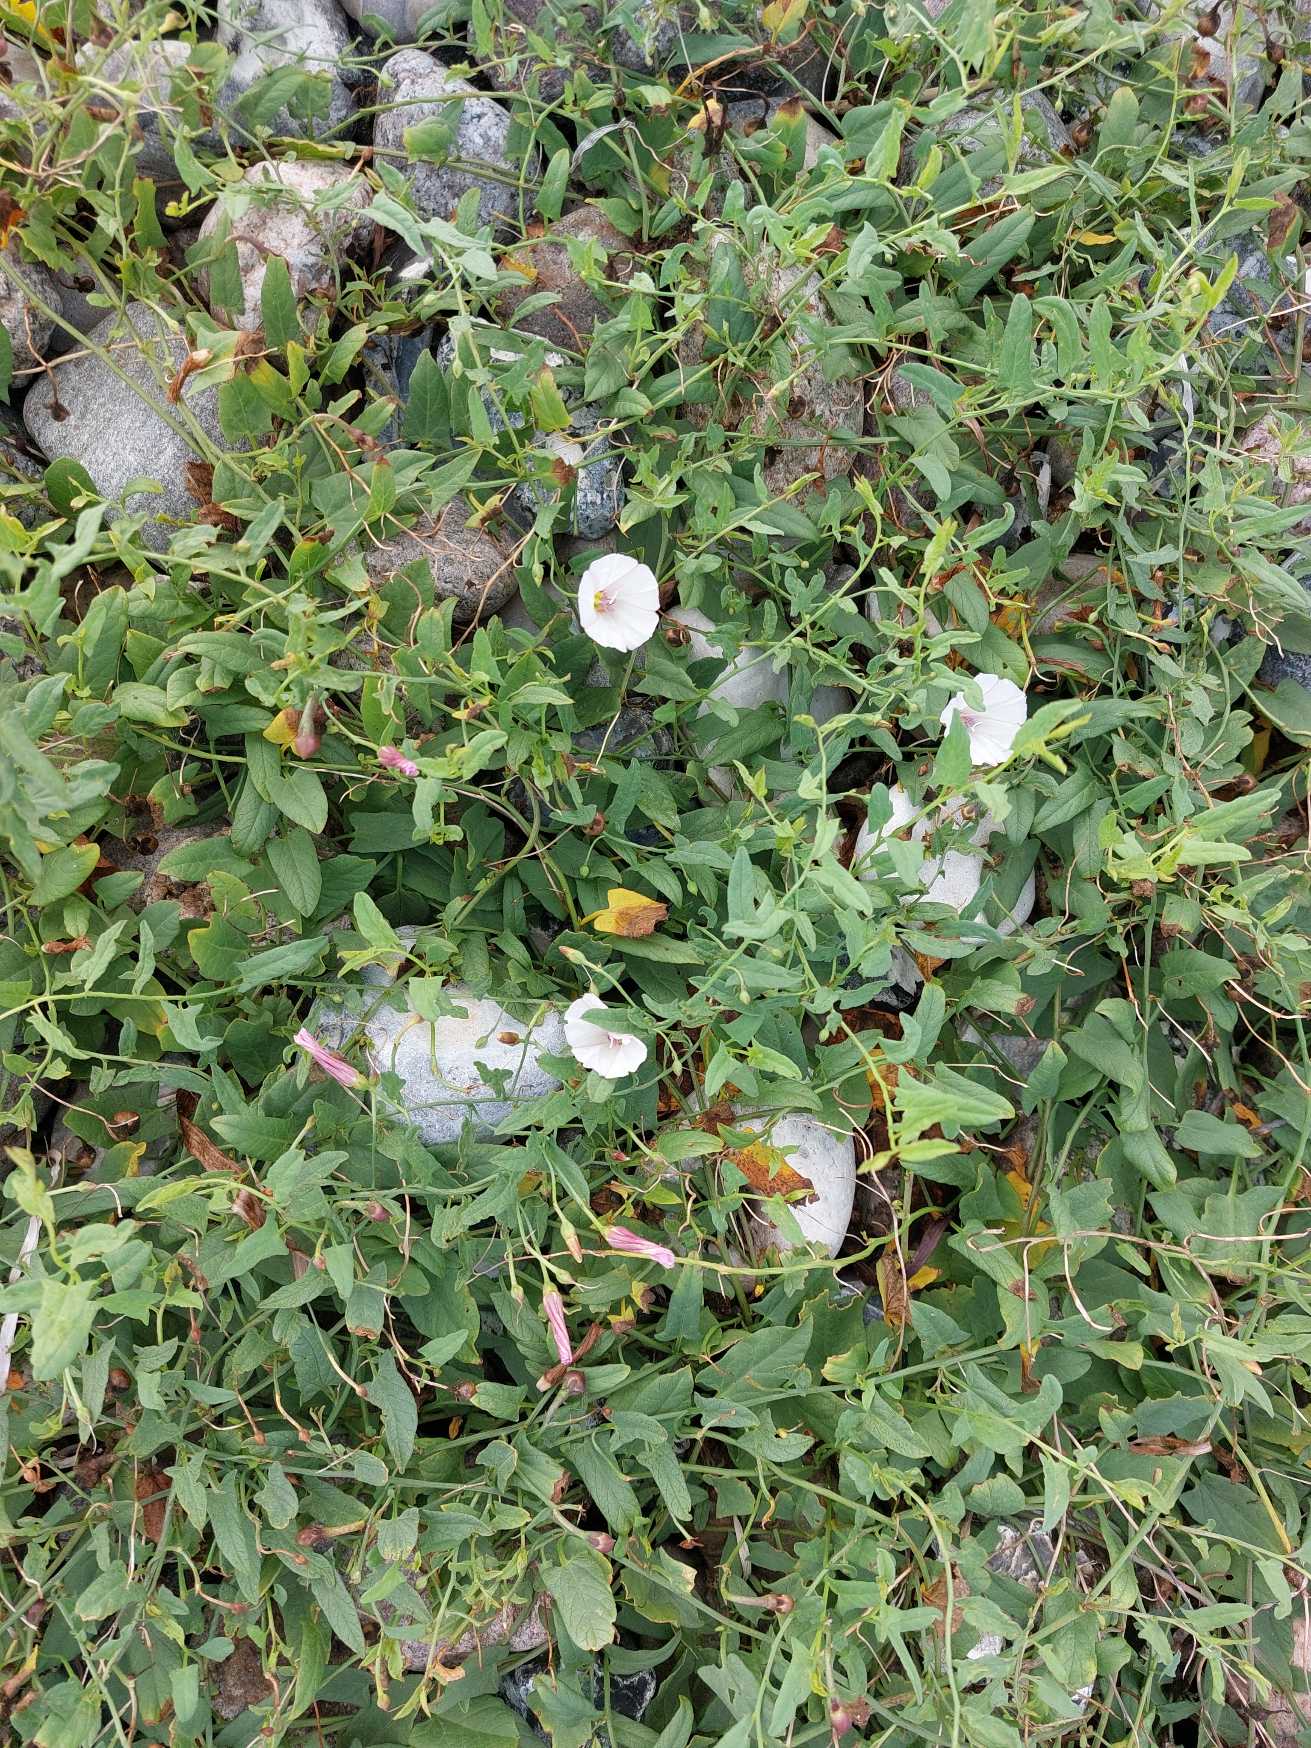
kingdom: Plantae
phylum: Tracheophyta
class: Magnoliopsida
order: Solanales
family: Convolvulaceae
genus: Convolvulus
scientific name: Convolvulus arvensis
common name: Ager-snerle
